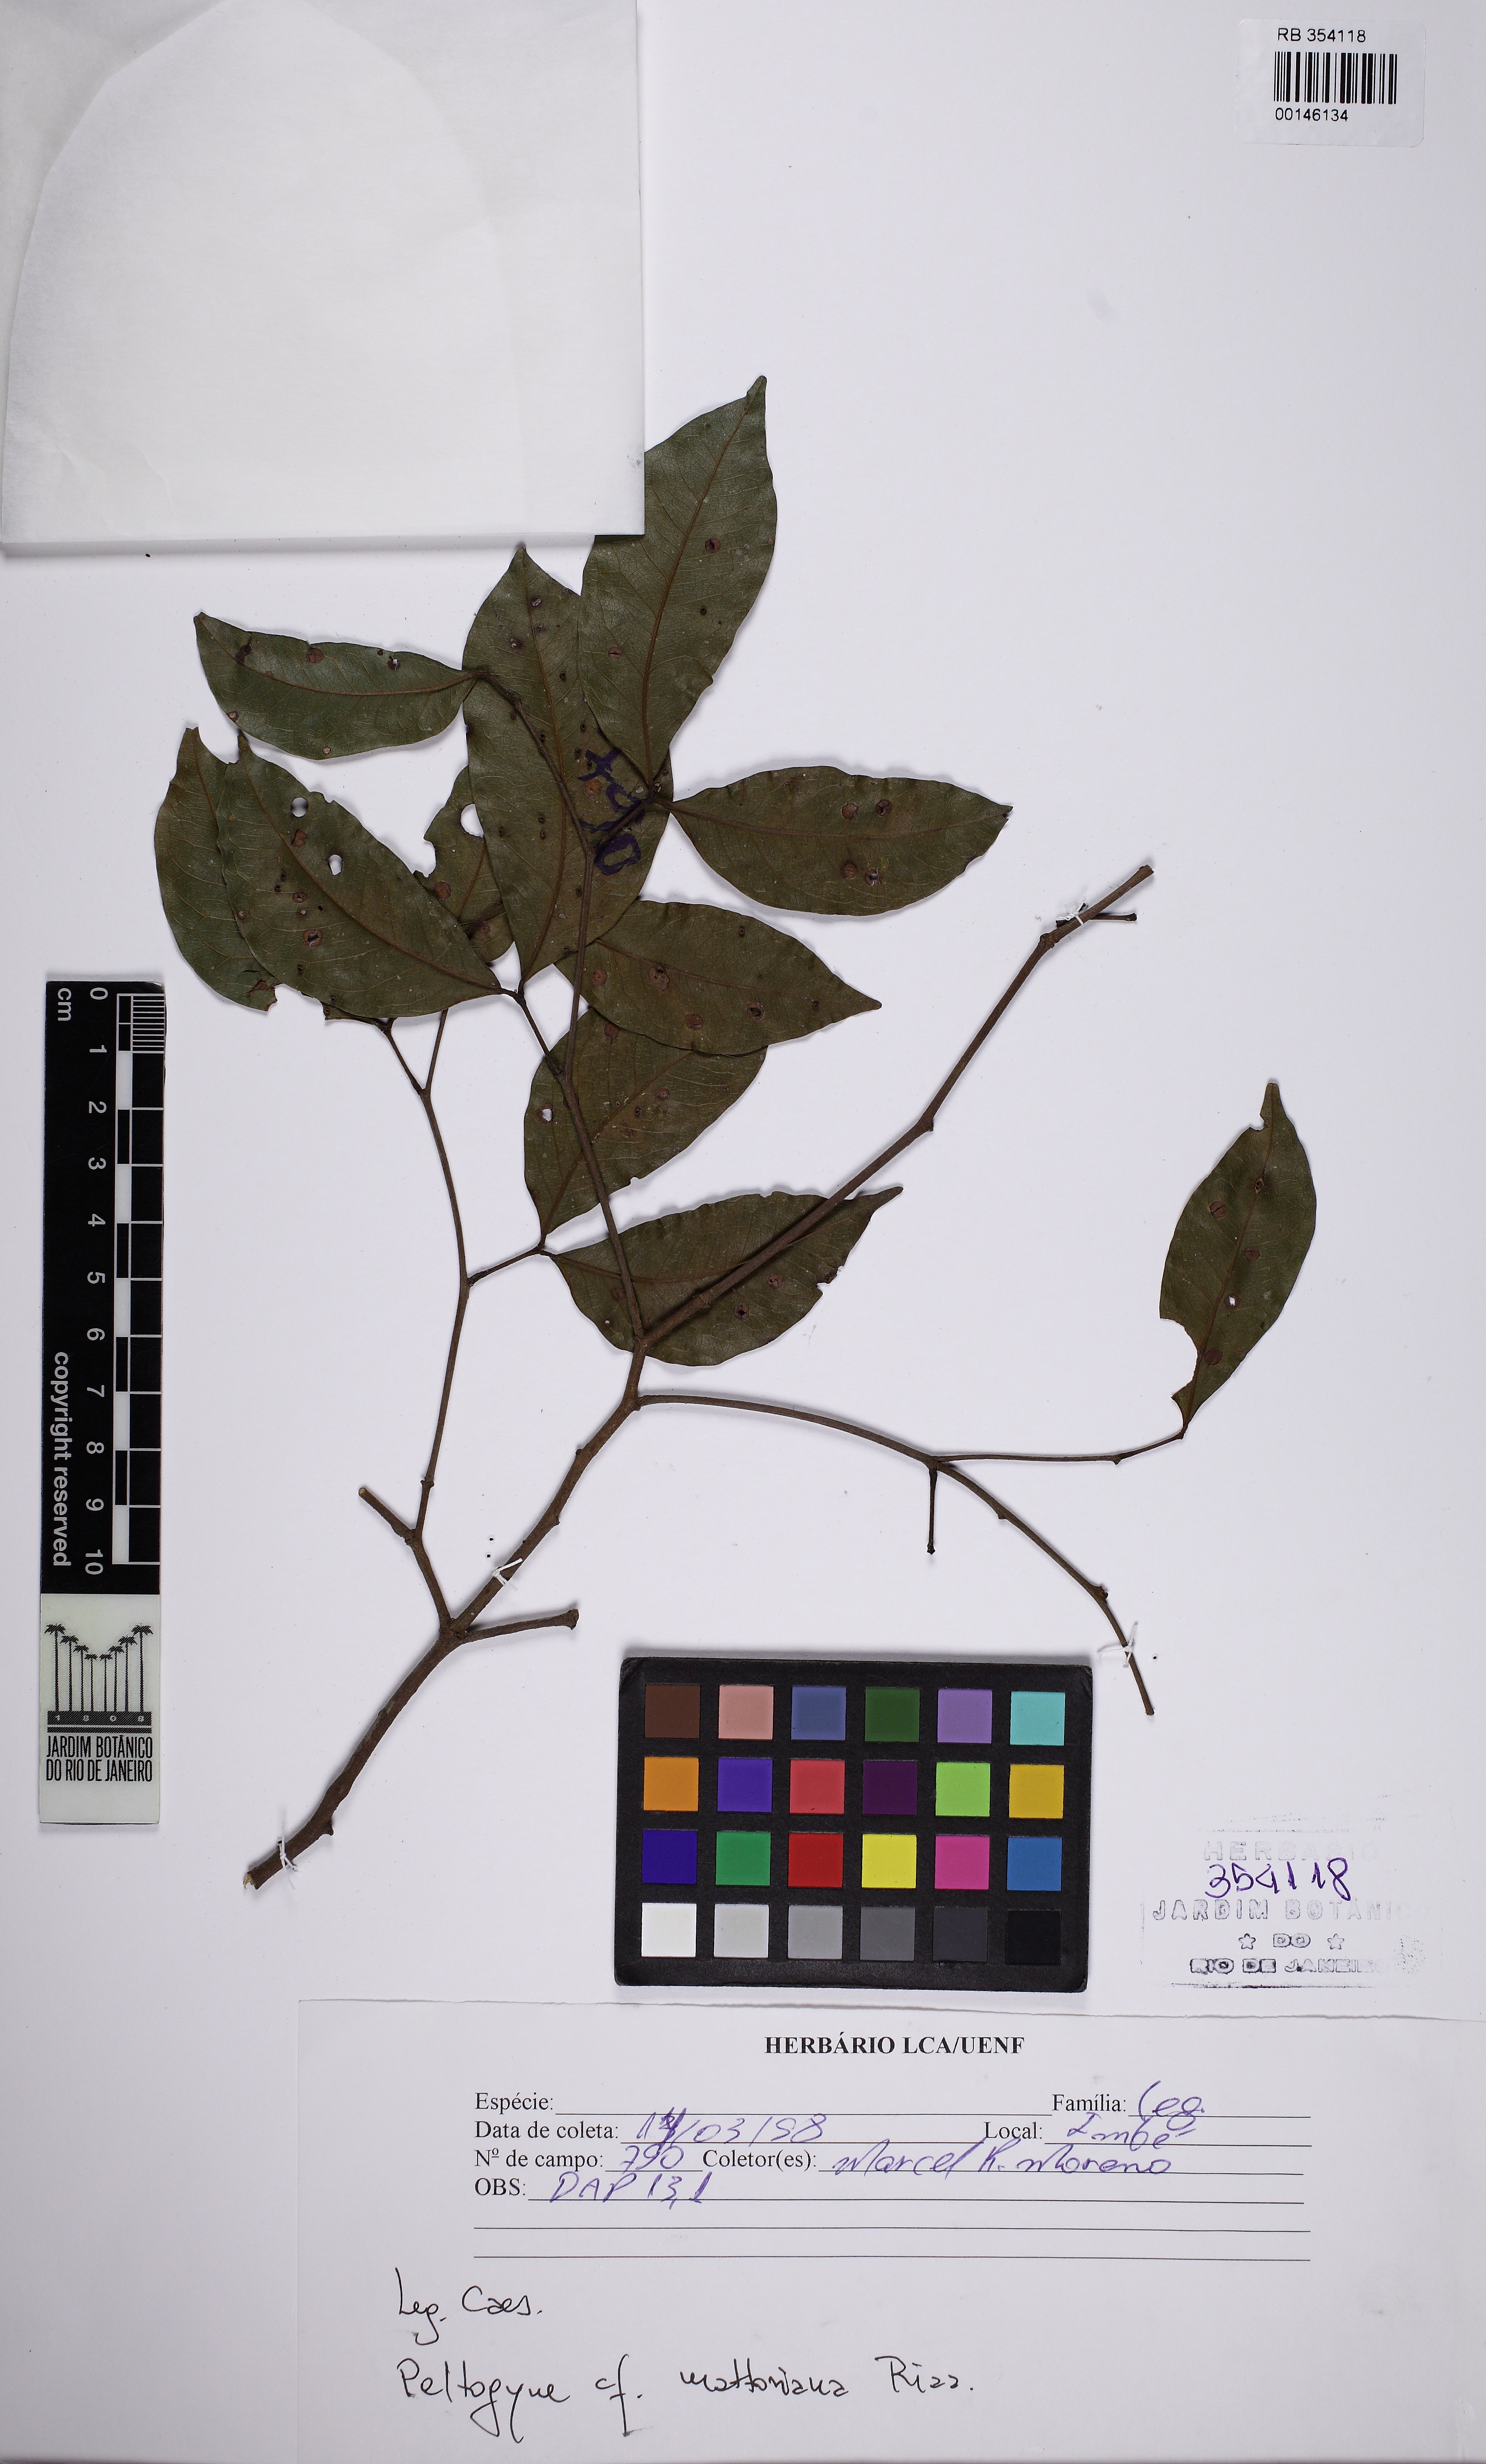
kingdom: Plantae
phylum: Tracheophyta
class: Magnoliopsida
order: Fabales
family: Fabaceae
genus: Peltogyne
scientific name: Peltogyne mattosiana
